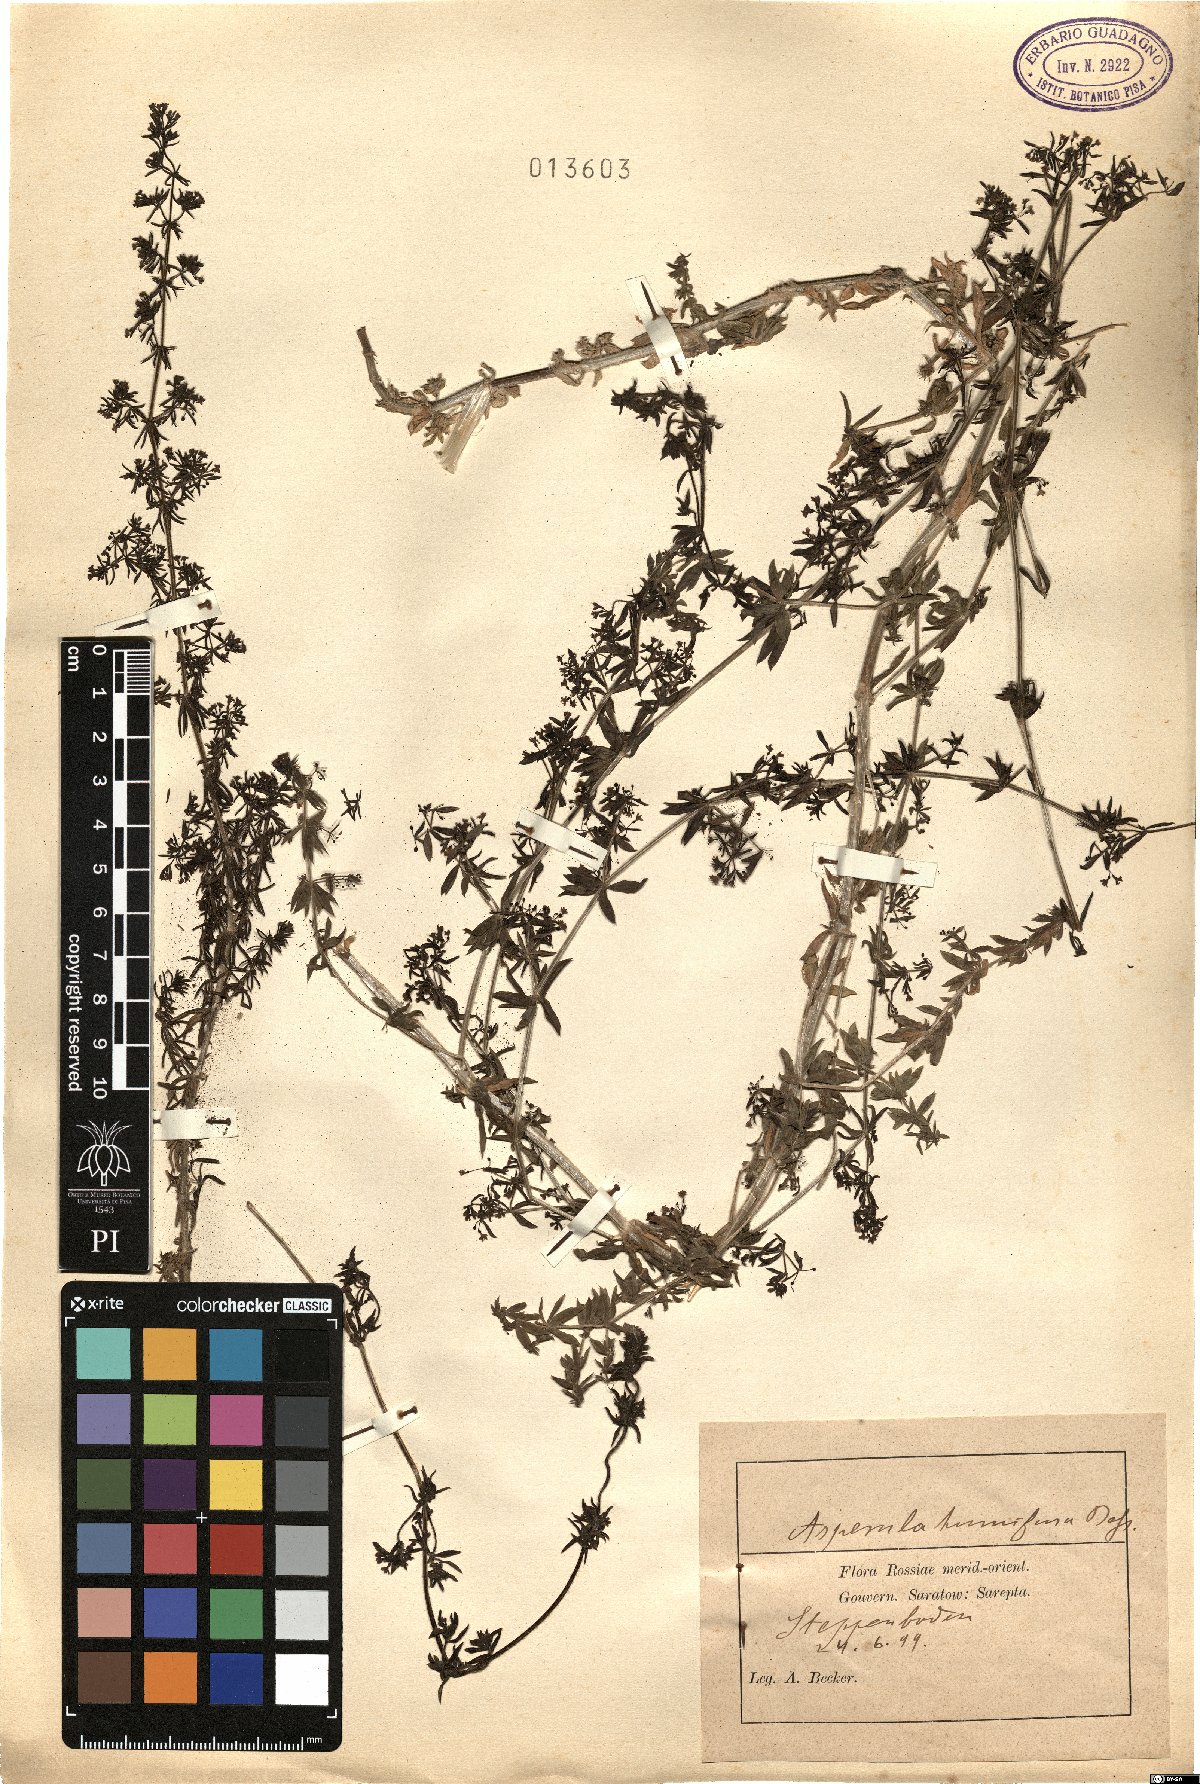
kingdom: Plantae
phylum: Tracheophyta
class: Magnoliopsida
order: Gentianales
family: Rubiaceae
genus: Galium
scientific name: Galium humifusum
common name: Spreading bedstraw
